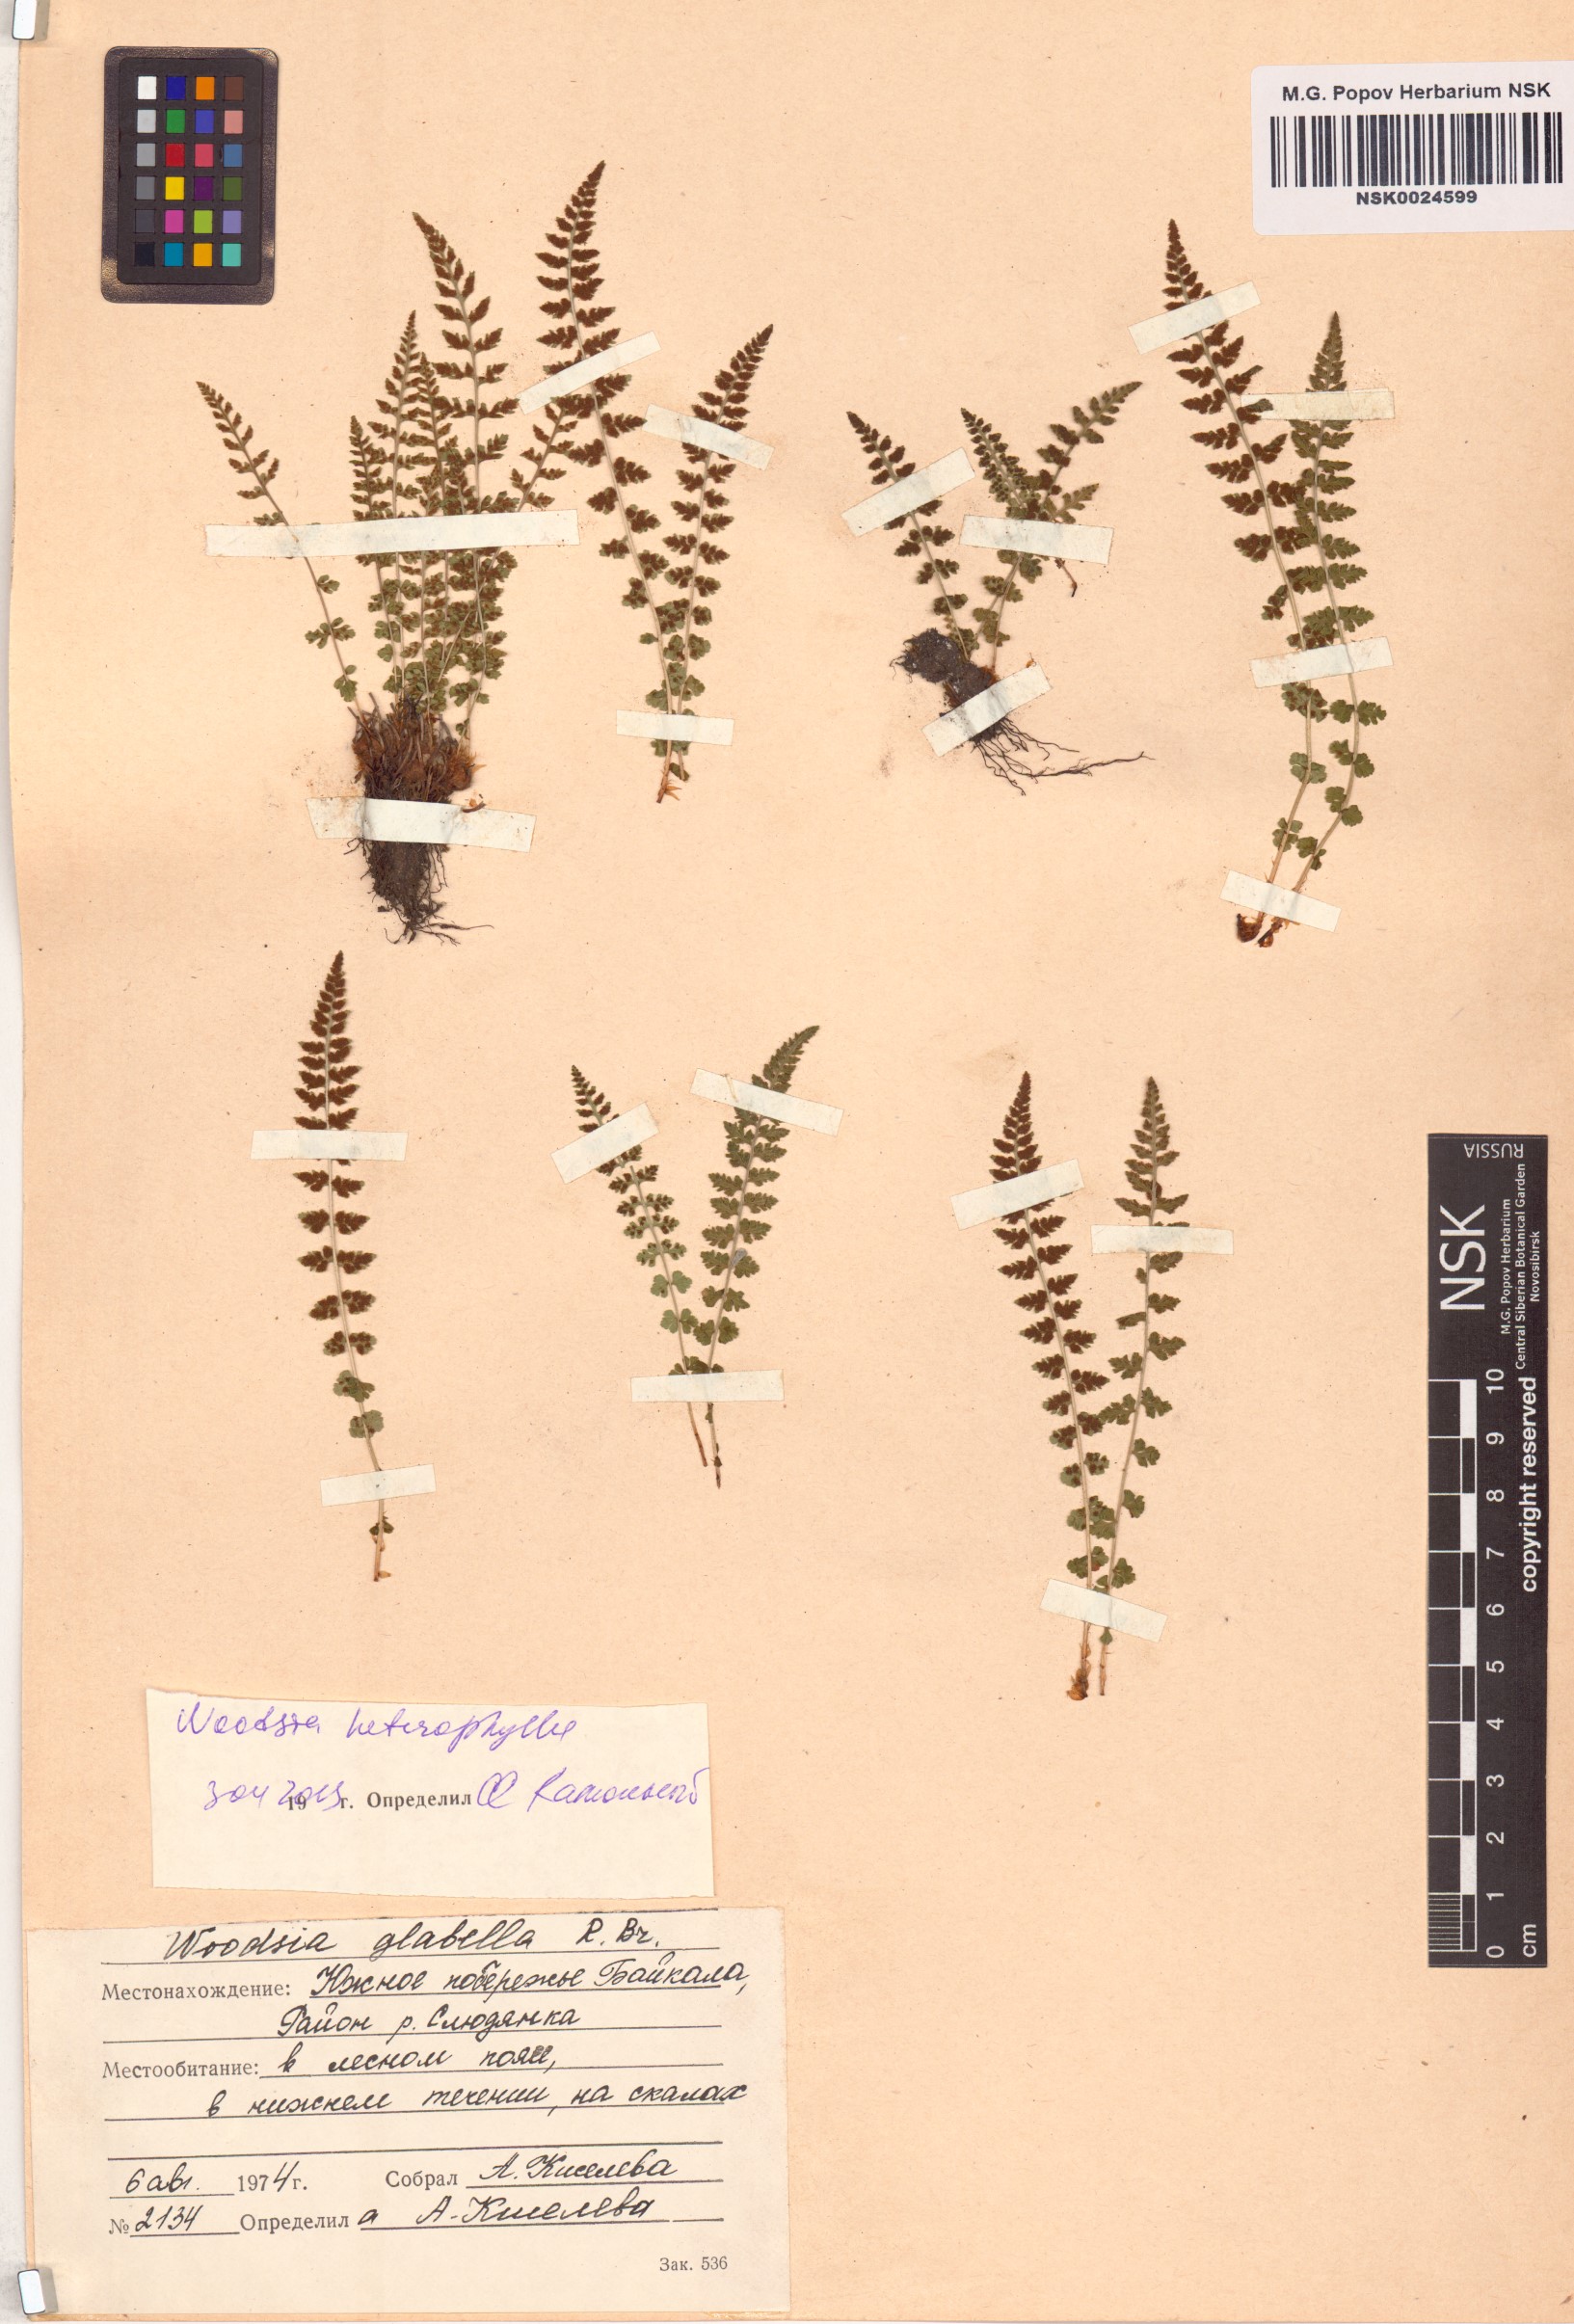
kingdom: Plantae
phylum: Tracheophyta
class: Polypodiopsida
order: Polypodiales
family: Woodsiaceae
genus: Woodsia
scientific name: Woodsia pulchella
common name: Graceful woodsia
